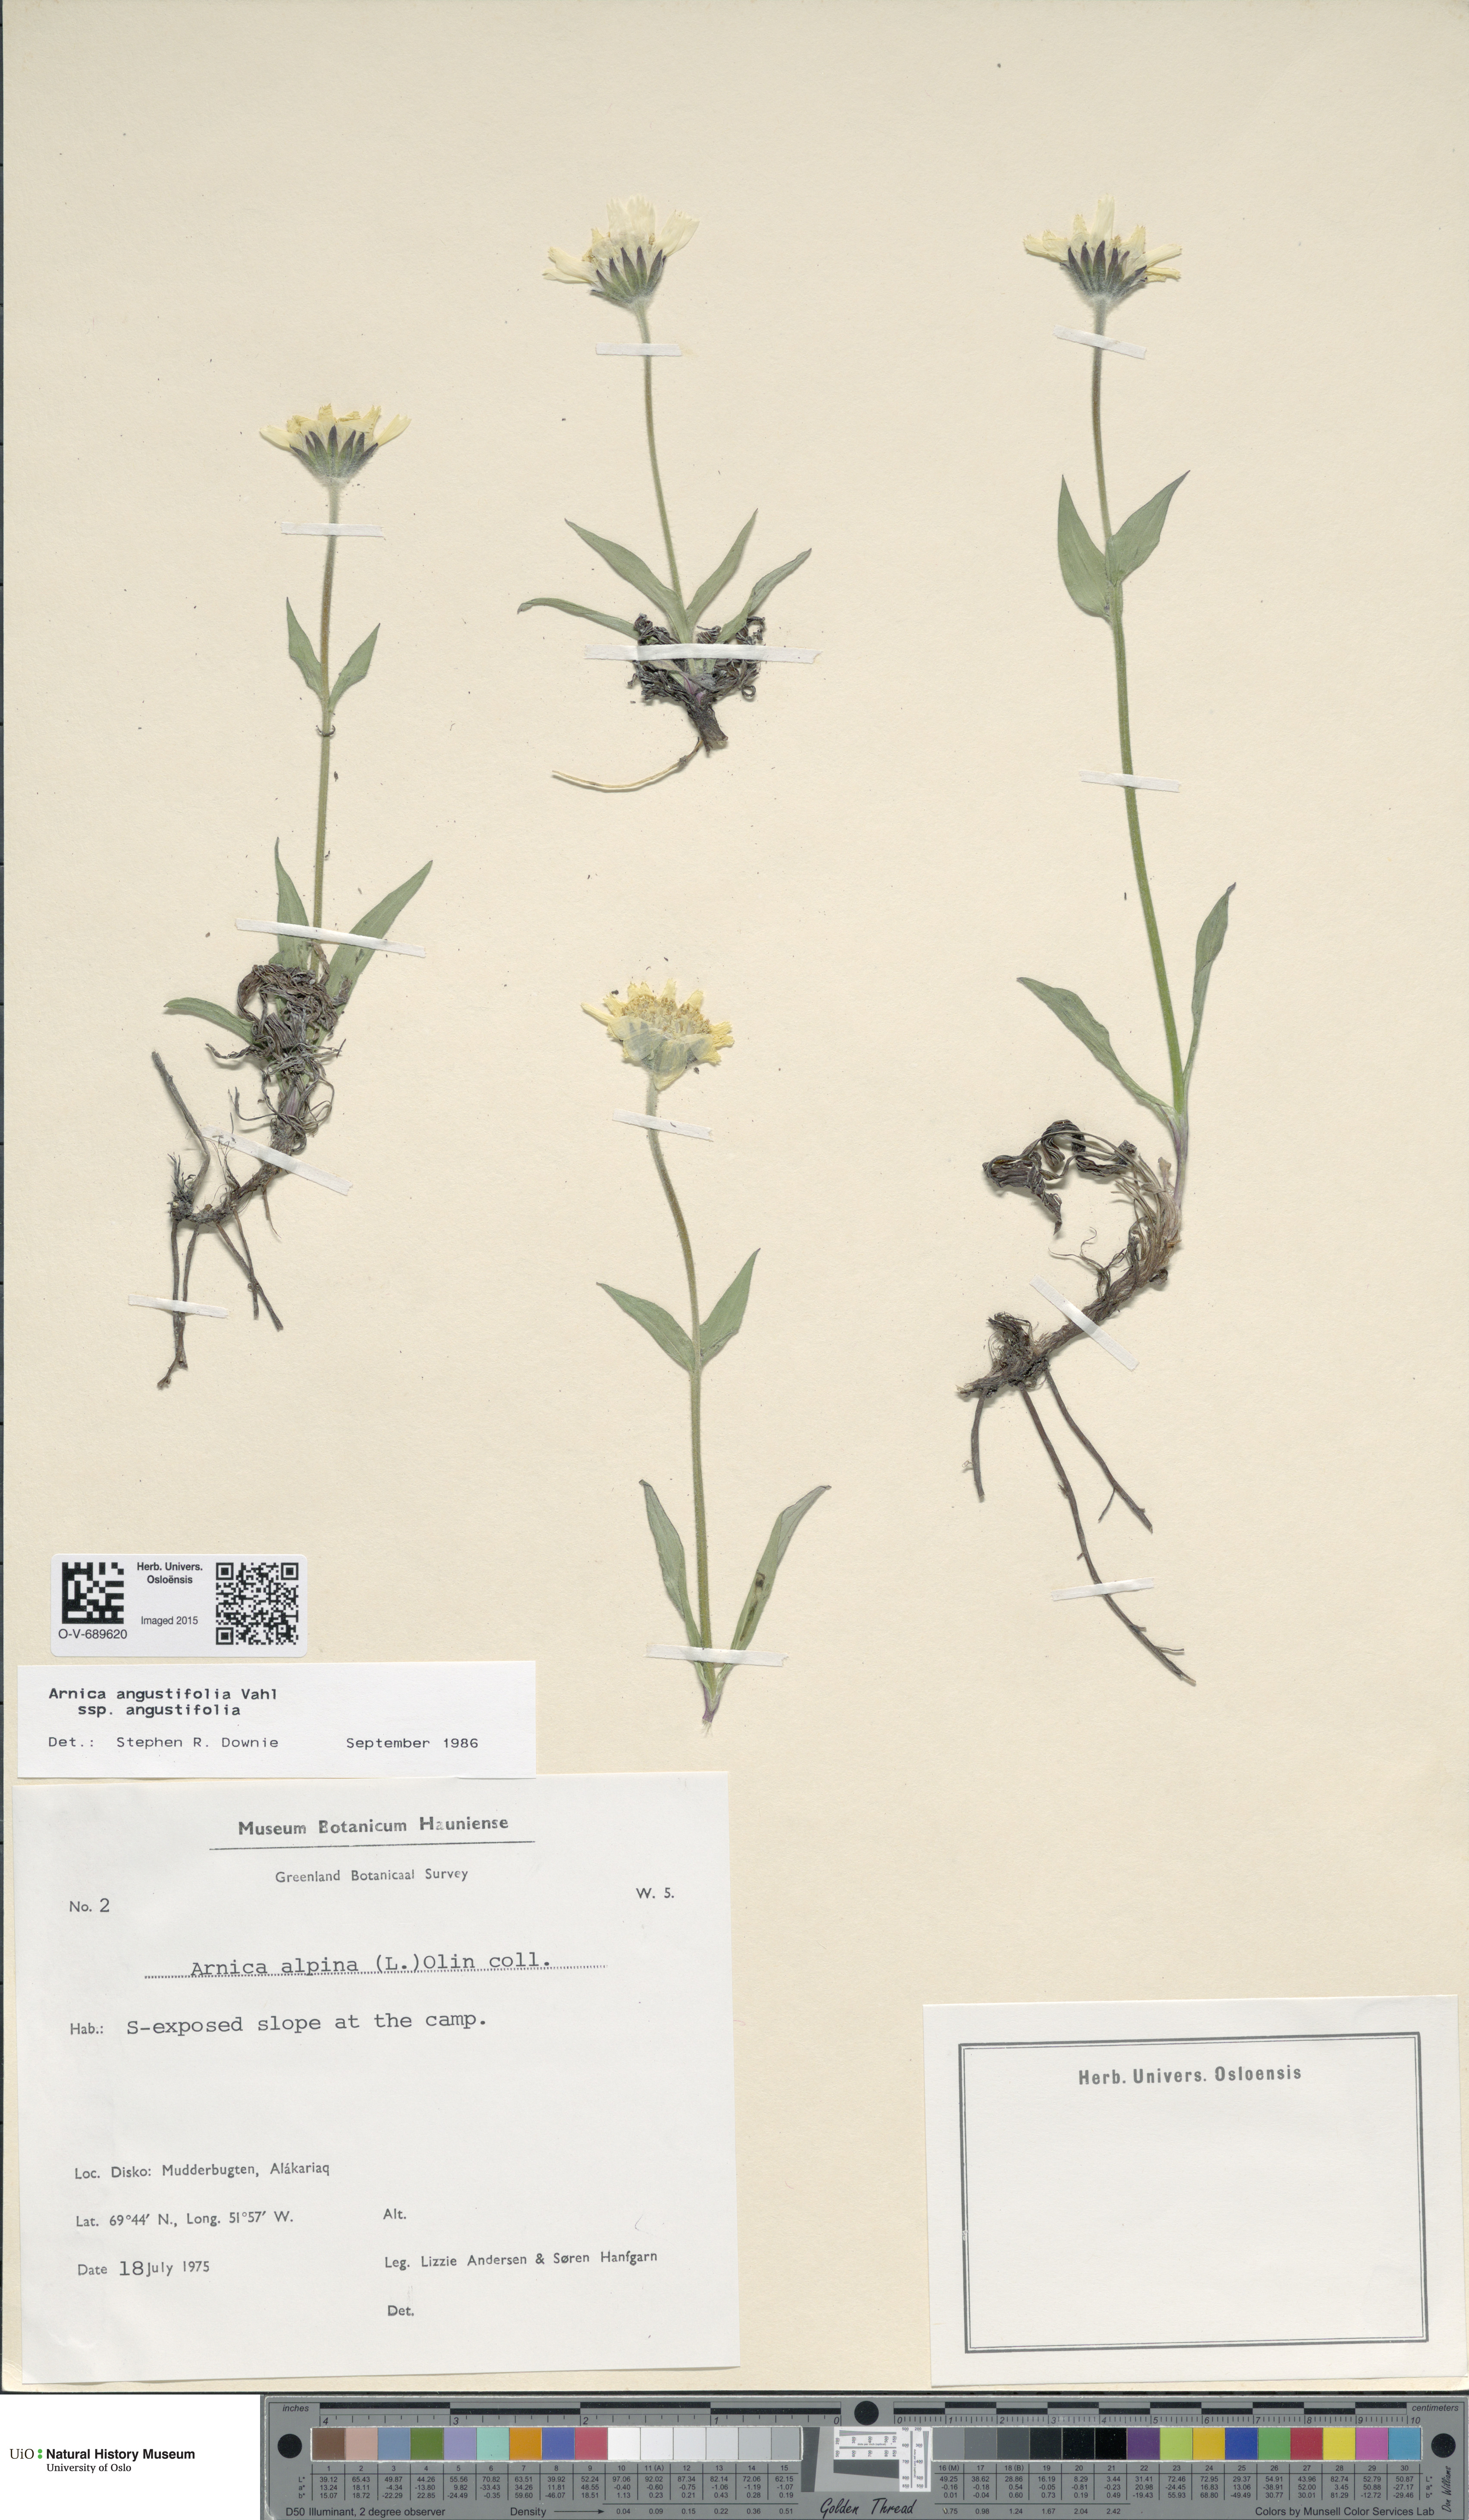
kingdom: Plantae
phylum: Tracheophyta
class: Magnoliopsida
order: Asterales
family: Asteraceae
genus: Arnica
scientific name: Arnica angustifolia
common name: Arctic arnica
